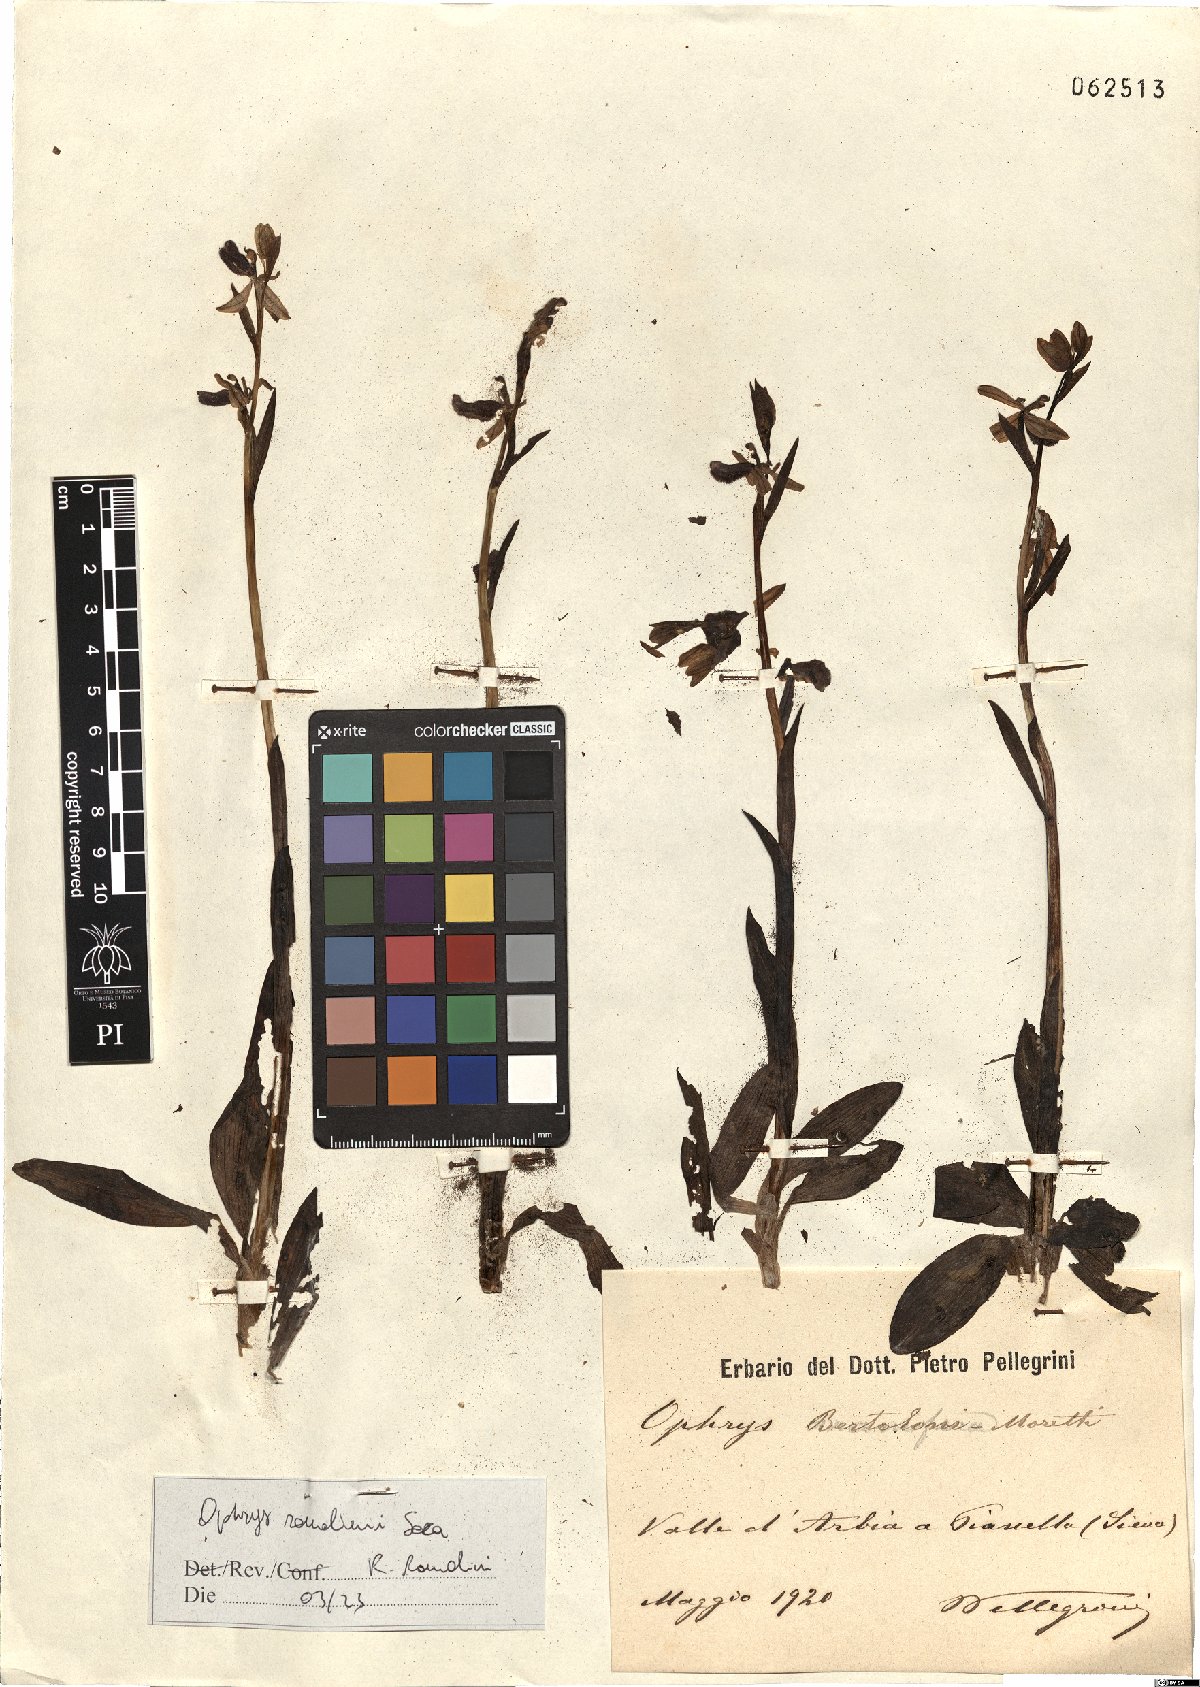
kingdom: Plantae
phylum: Tracheophyta
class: Liliopsida
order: Asparagales
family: Orchidaceae
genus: Ophrys
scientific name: Ophrys bertolonii
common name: Bertoloni's bee orchid
